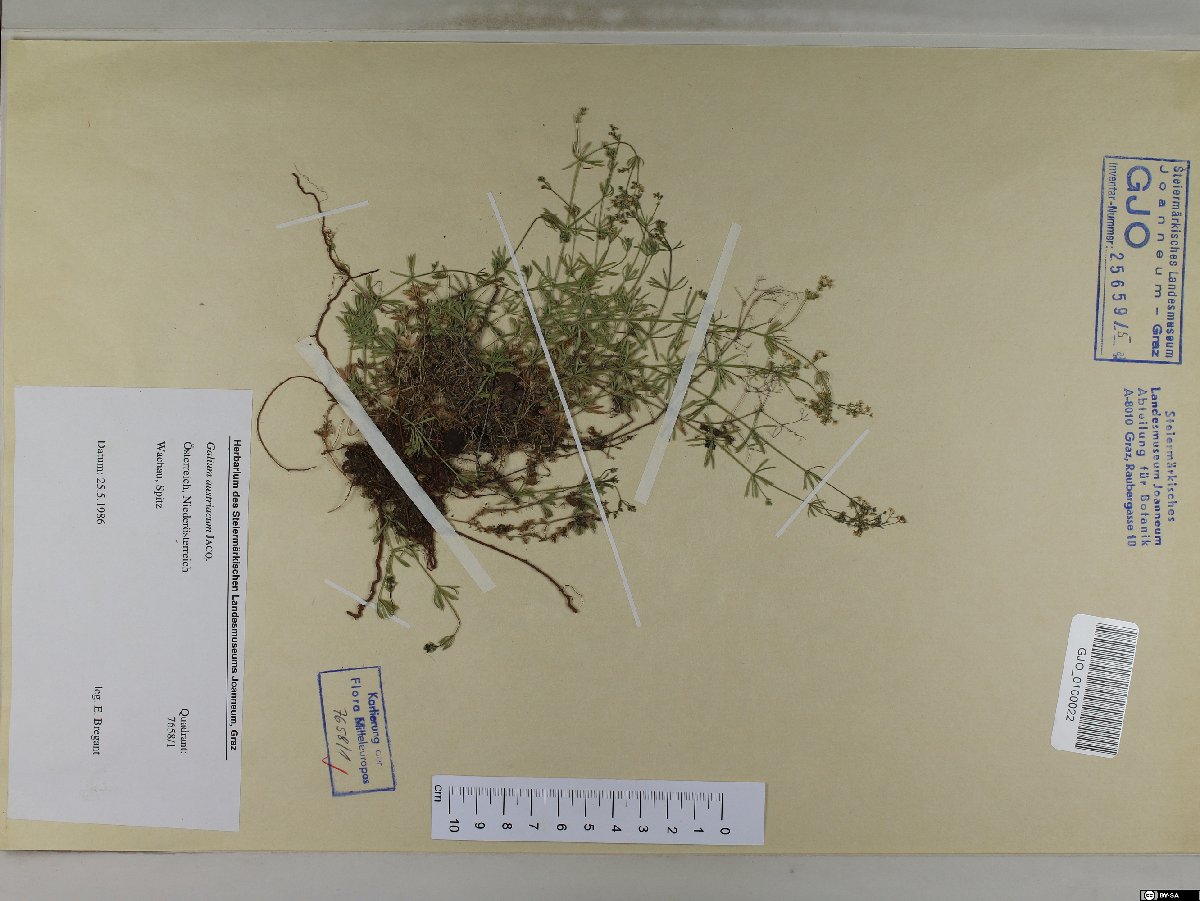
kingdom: Plantae
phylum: Tracheophyta
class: Magnoliopsida
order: Gentianales
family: Rubiaceae
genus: Galium
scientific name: Galium austriacum
